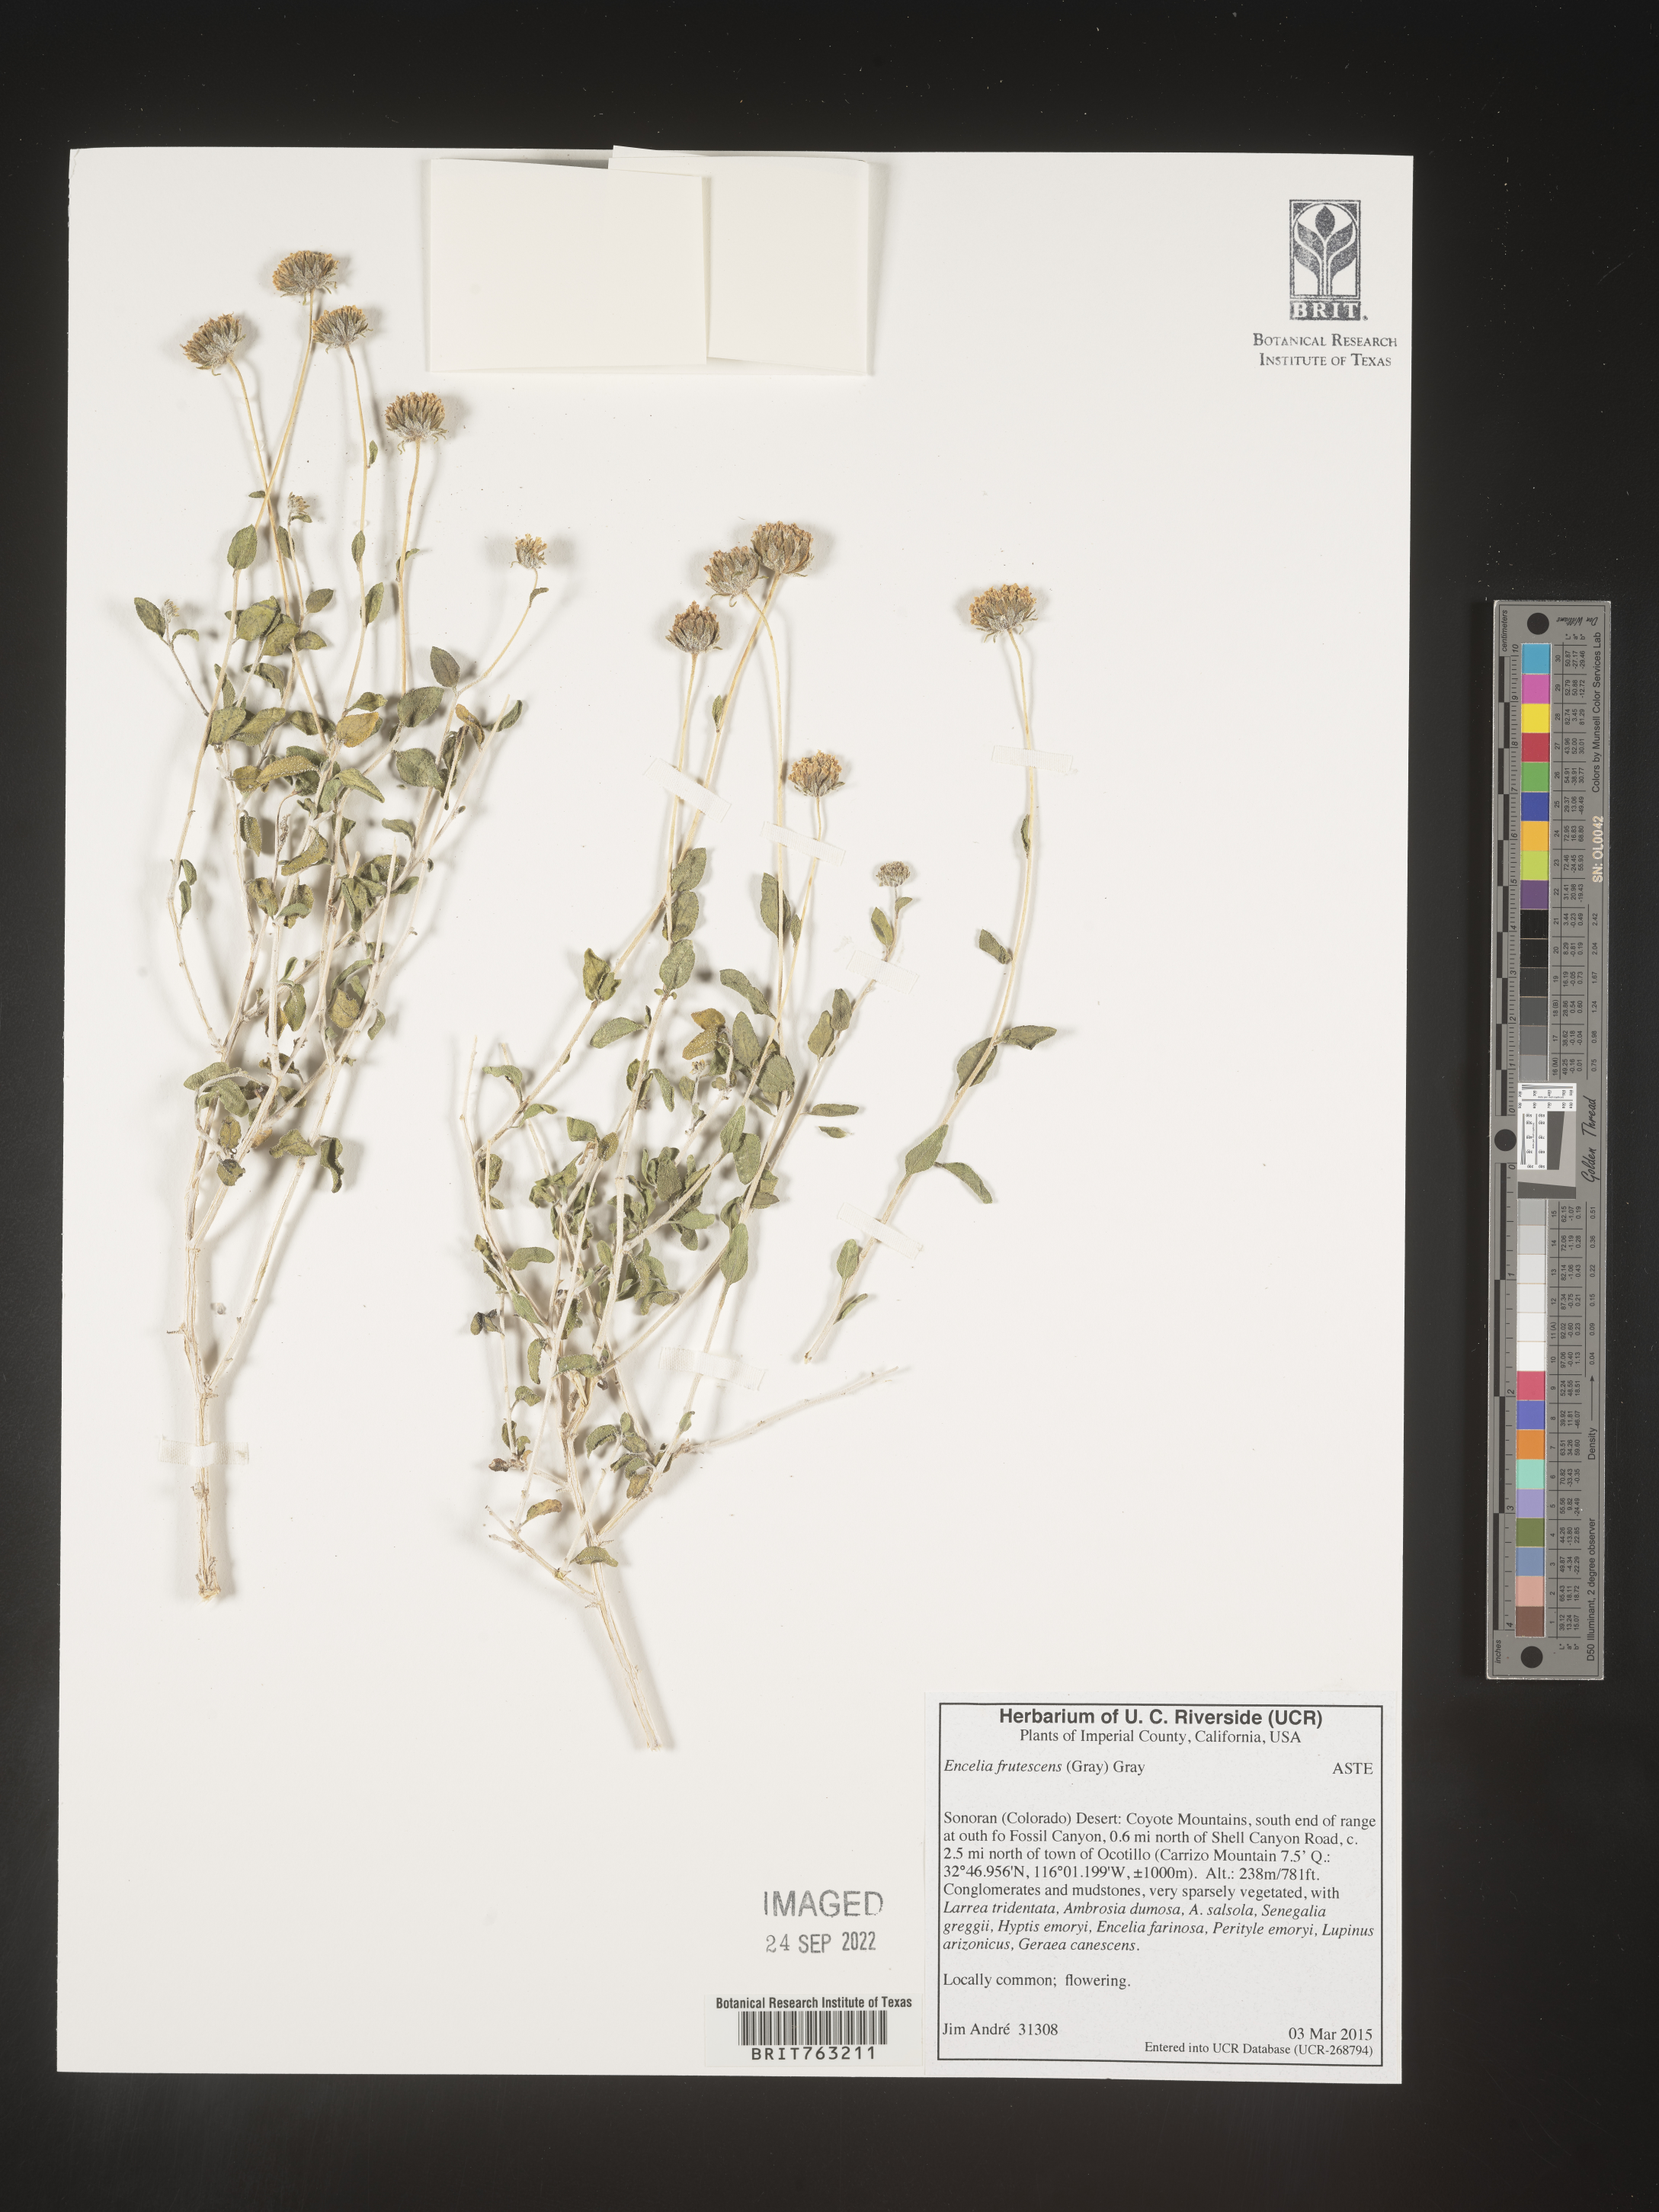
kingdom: Plantae
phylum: Tracheophyta
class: Magnoliopsida
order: Asterales
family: Asteraceae
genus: Encelia
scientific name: Encelia frutescens
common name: Bush encelia
